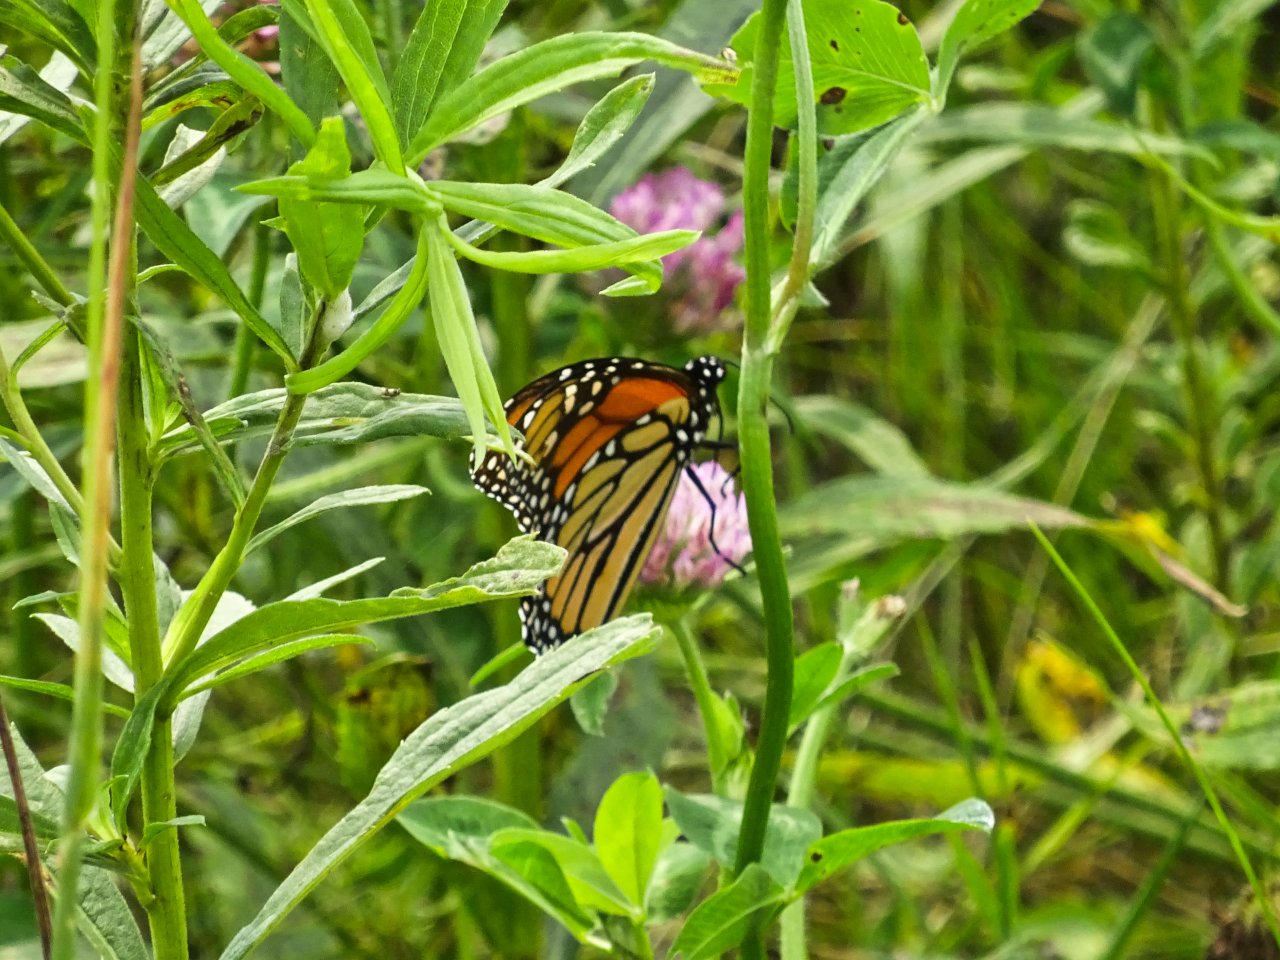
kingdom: Animalia
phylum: Arthropoda
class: Insecta
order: Lepidoptera
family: Nymphalidae
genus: Danaus
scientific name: Danaus plexippus
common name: Monarch
